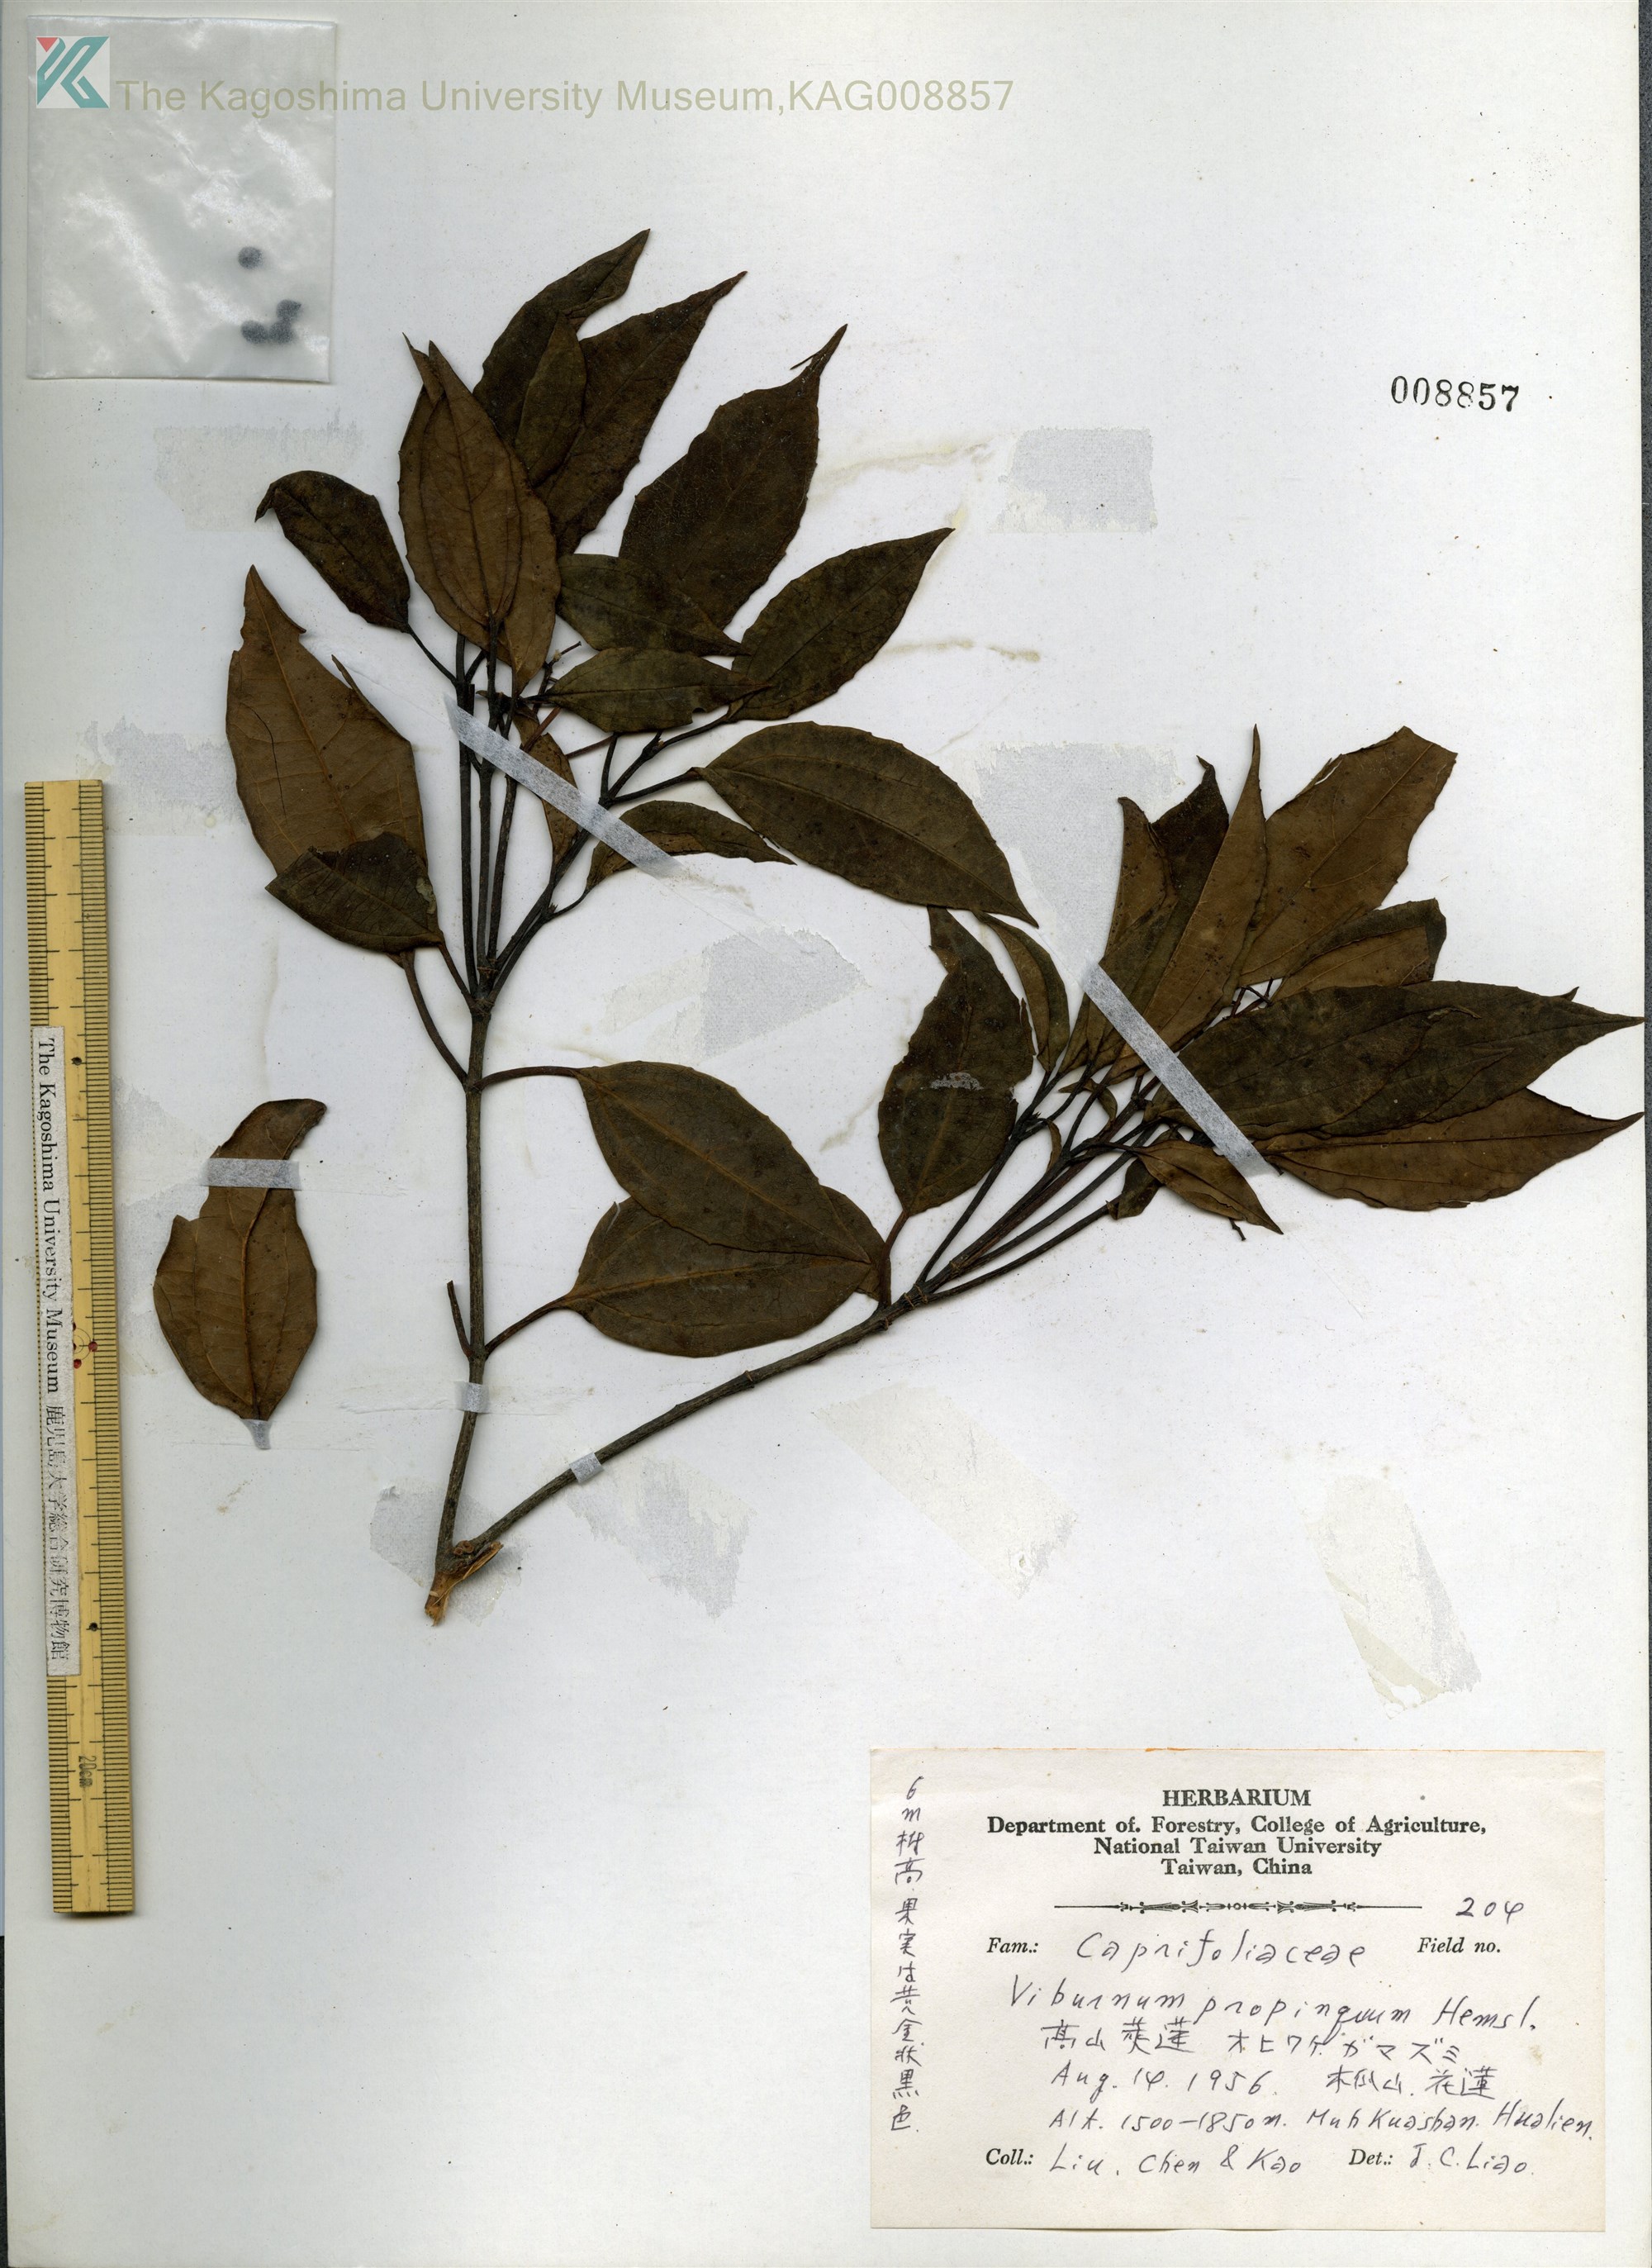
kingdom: Plantae
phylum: Tracheophyta
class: Magnoliopsida
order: Dipsacales
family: Viburnaceae
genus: Viburnum
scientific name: Viburnum propinquum
